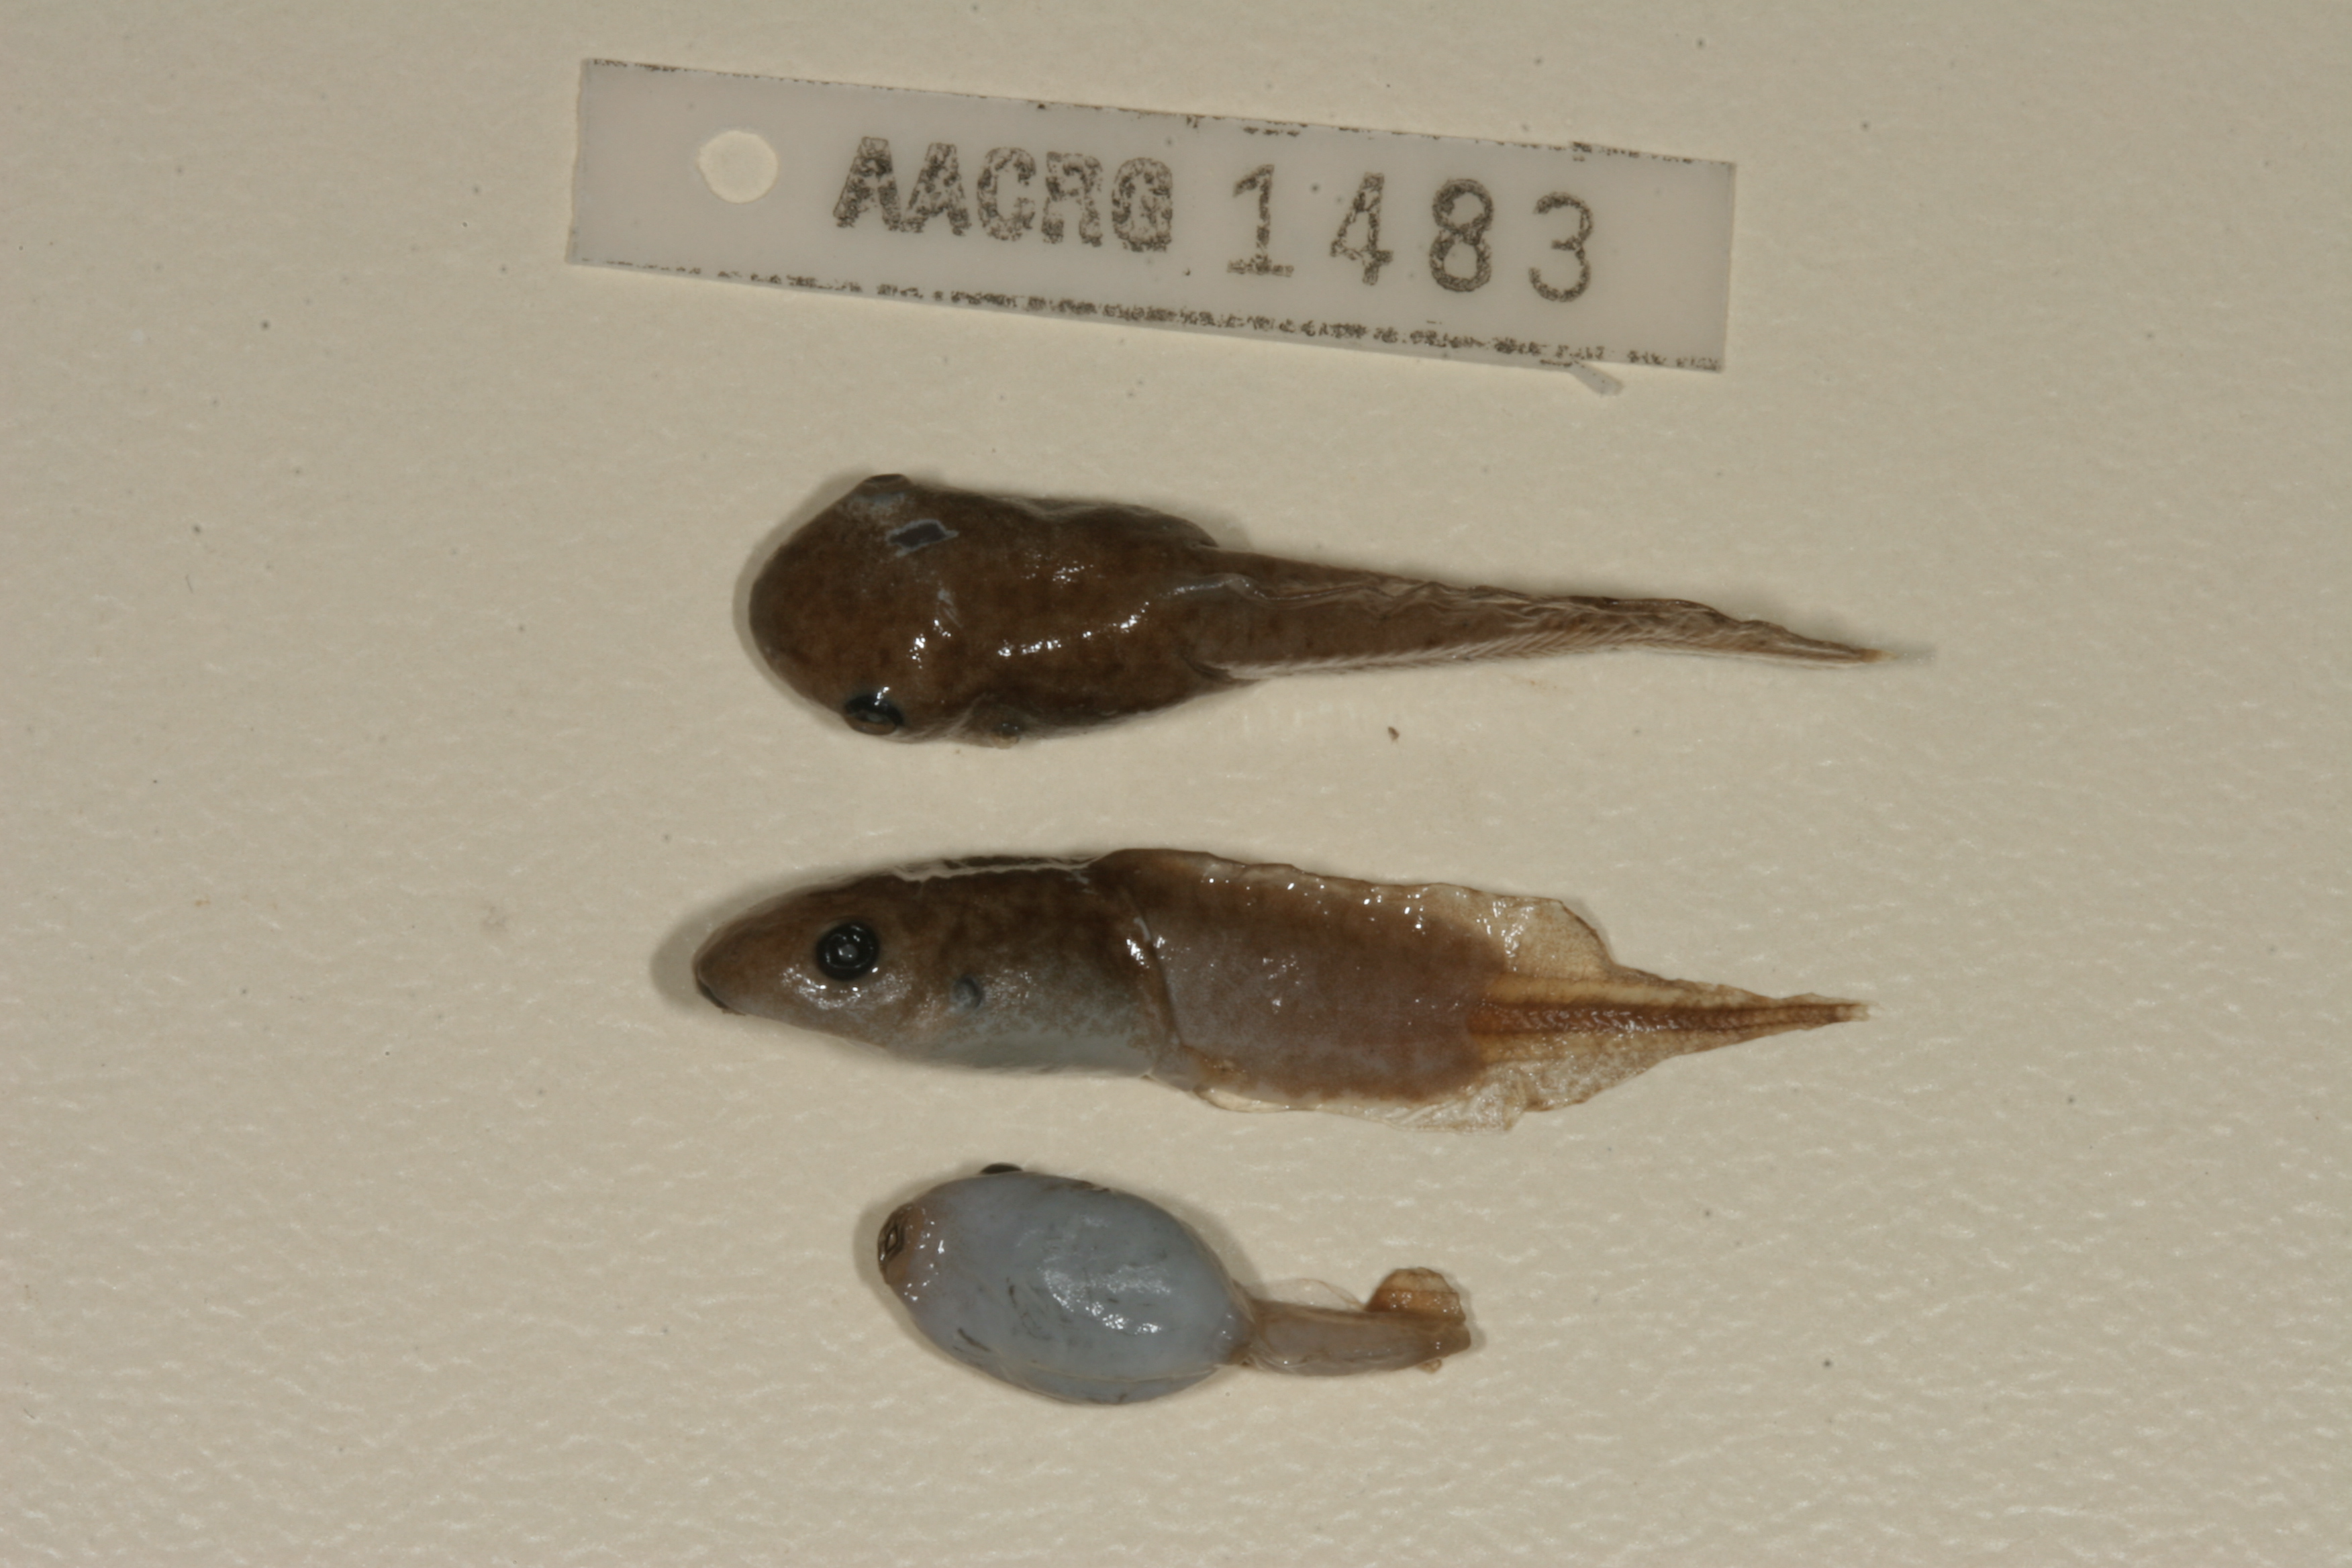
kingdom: Animalia
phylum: Chordata
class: Amphibia
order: Anura
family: Hemisotidae
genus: Hemisus
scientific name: Hemisus marmoratus
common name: Mottled shovel-nosed frog
